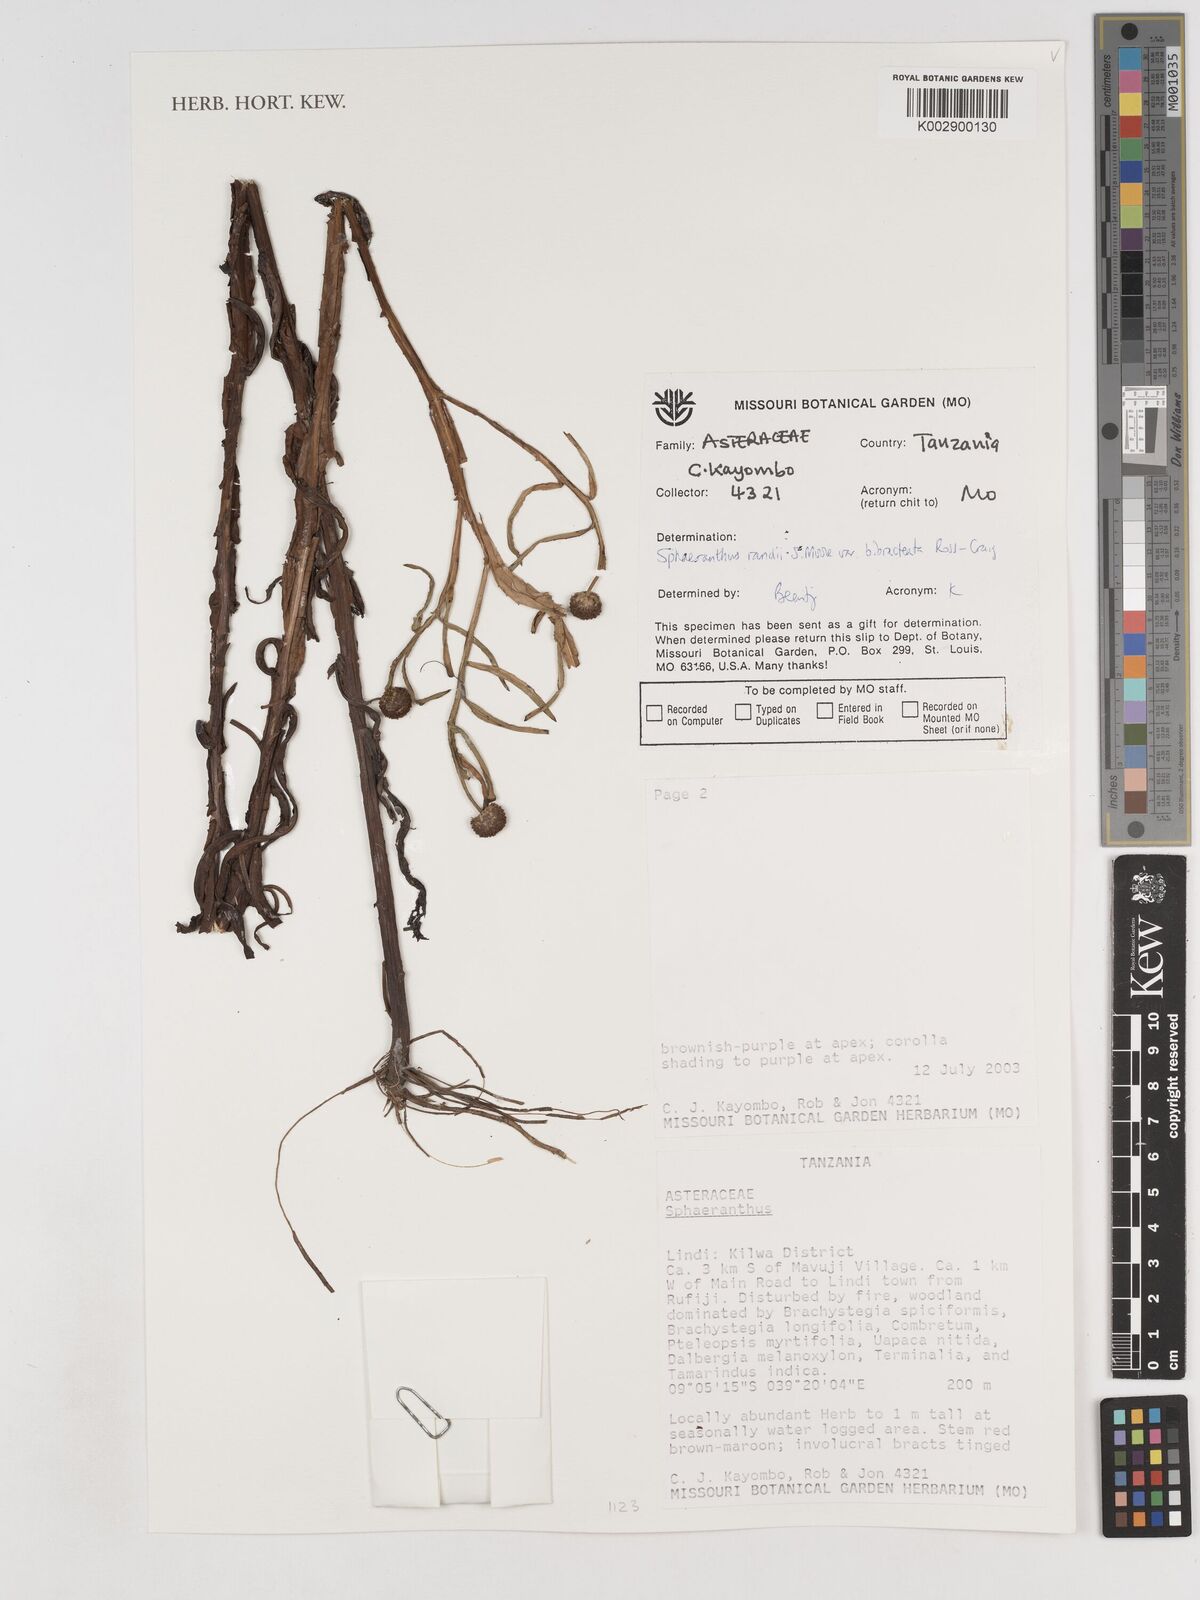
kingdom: Plantae
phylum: Tracheophyta
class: Magnoliopsida
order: Asterales
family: Asteraceae
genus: Sphaeranthus
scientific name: Sphaeranthus randii
